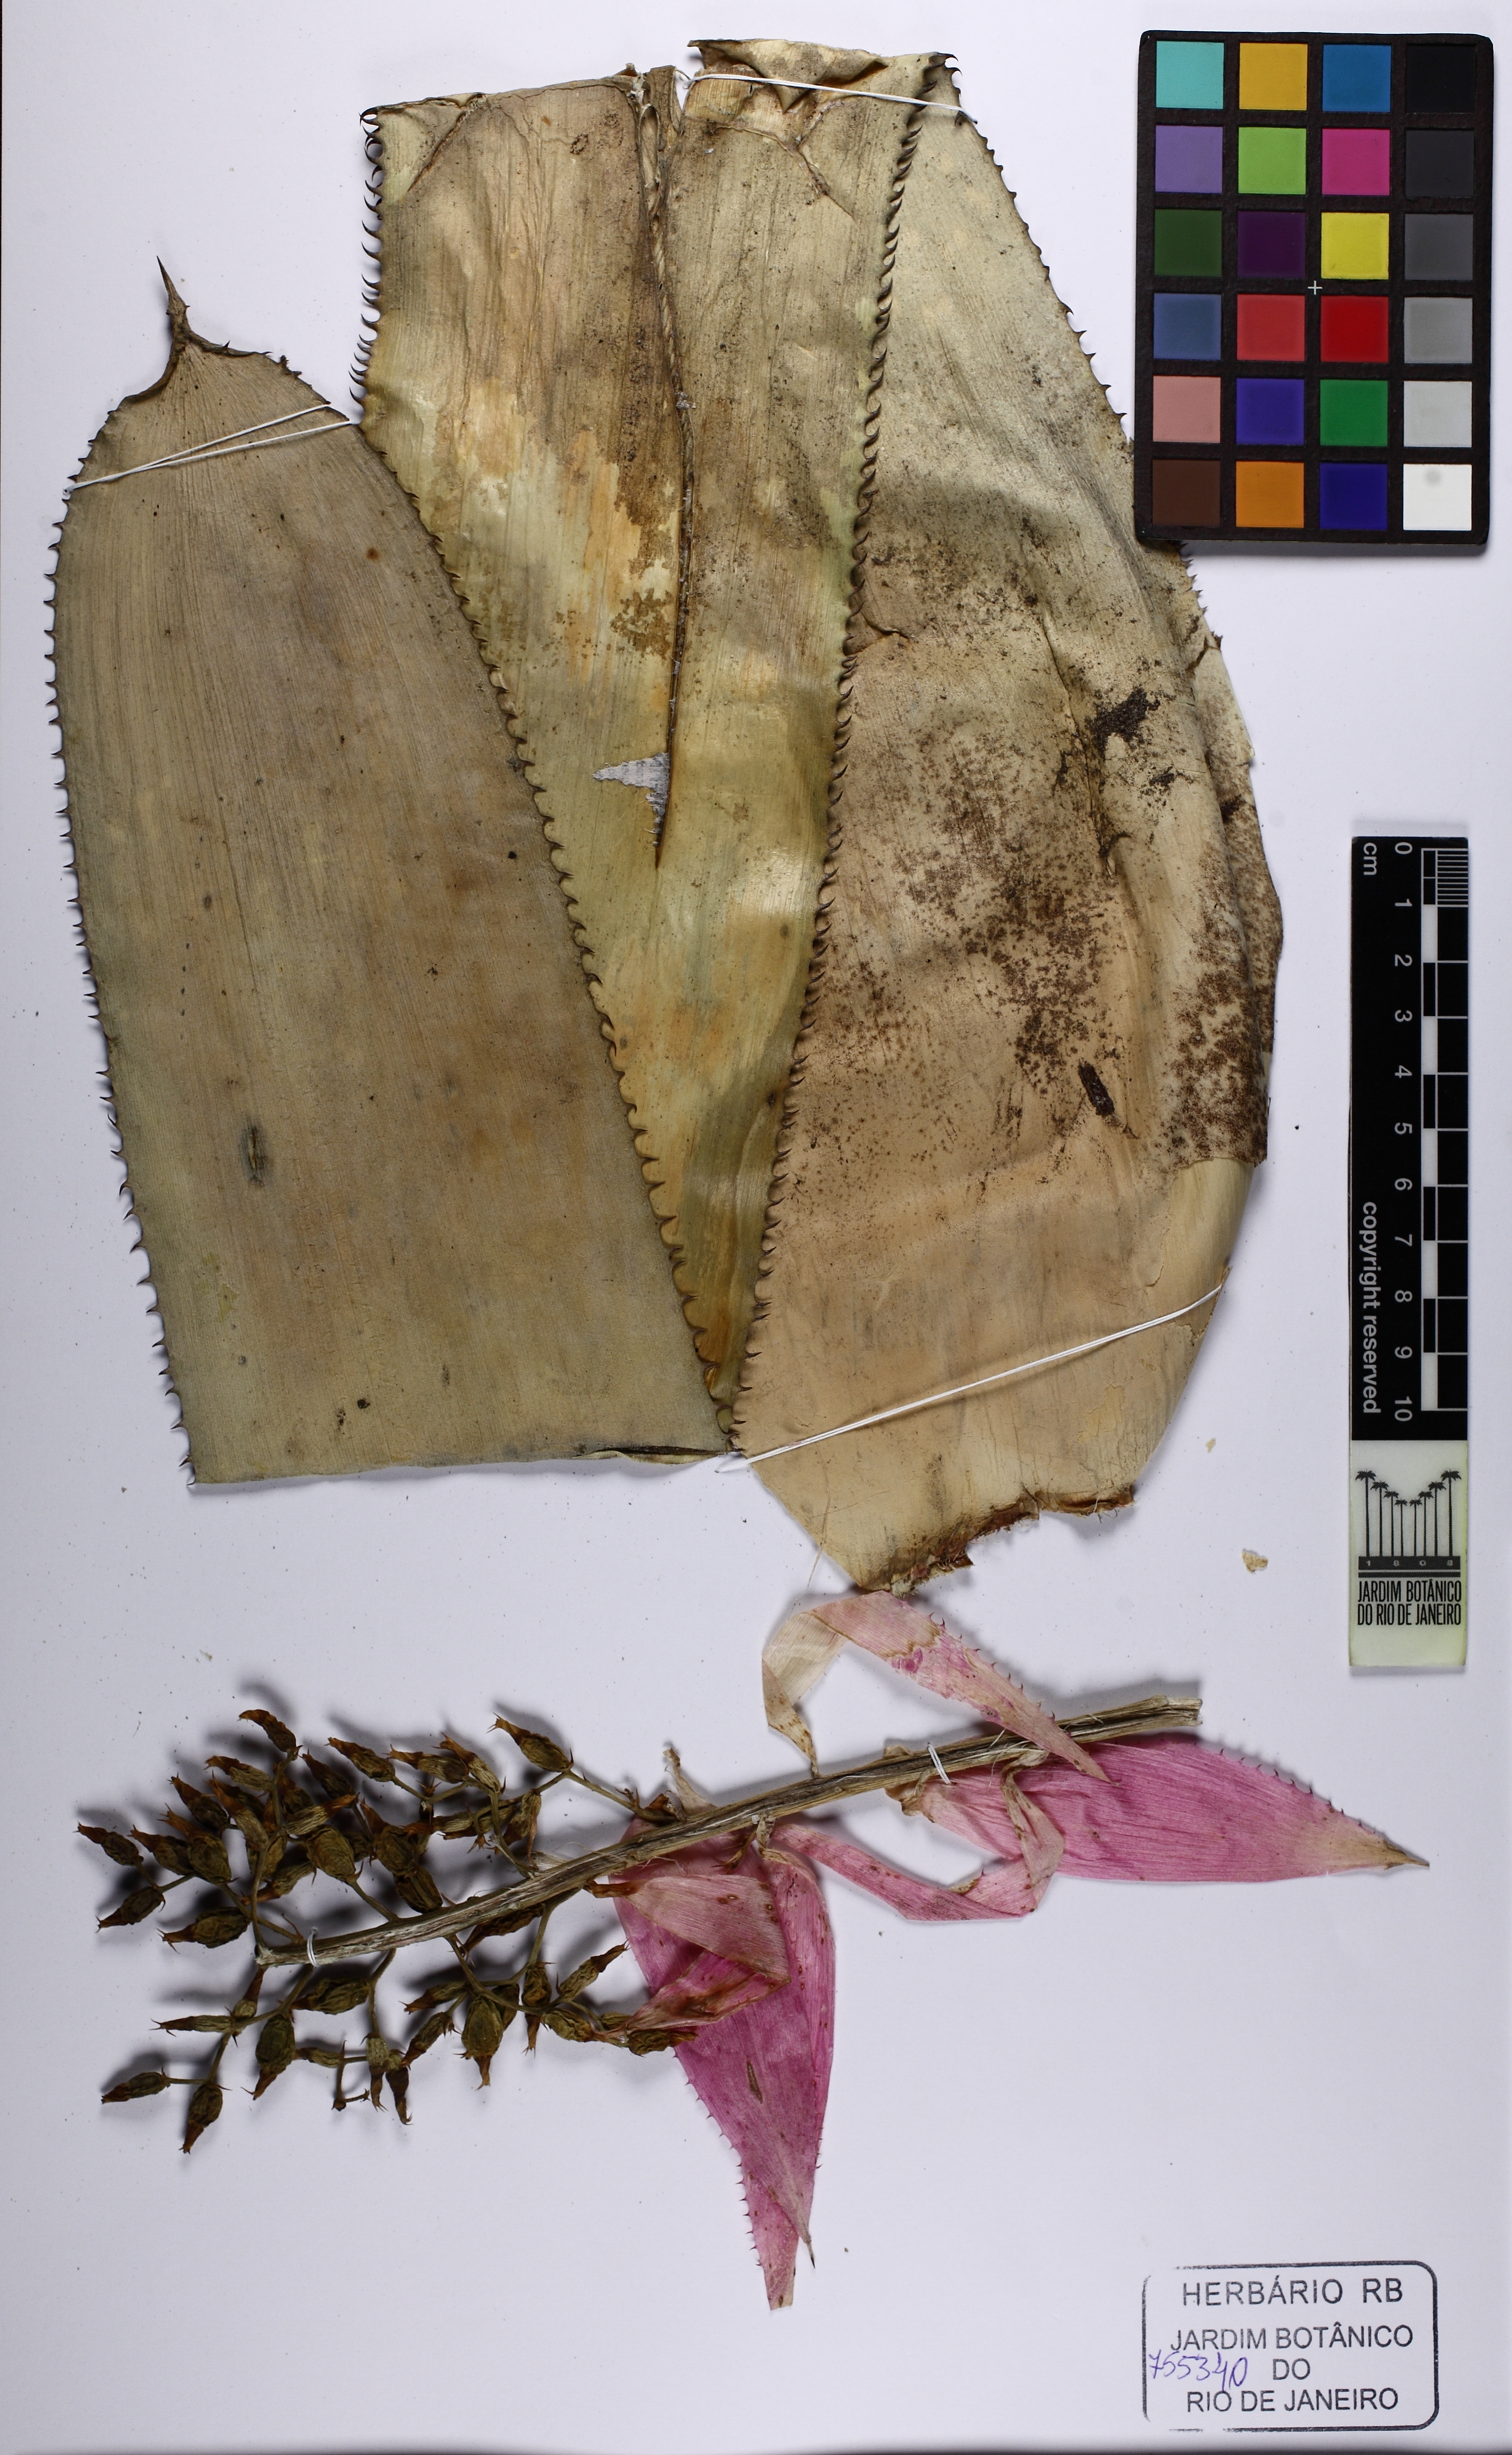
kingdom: Plantae
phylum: Tracheophyta
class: Liliopsida
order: Poales
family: Bromeliaceae
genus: Aechmea
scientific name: Aechmea castelnavii
